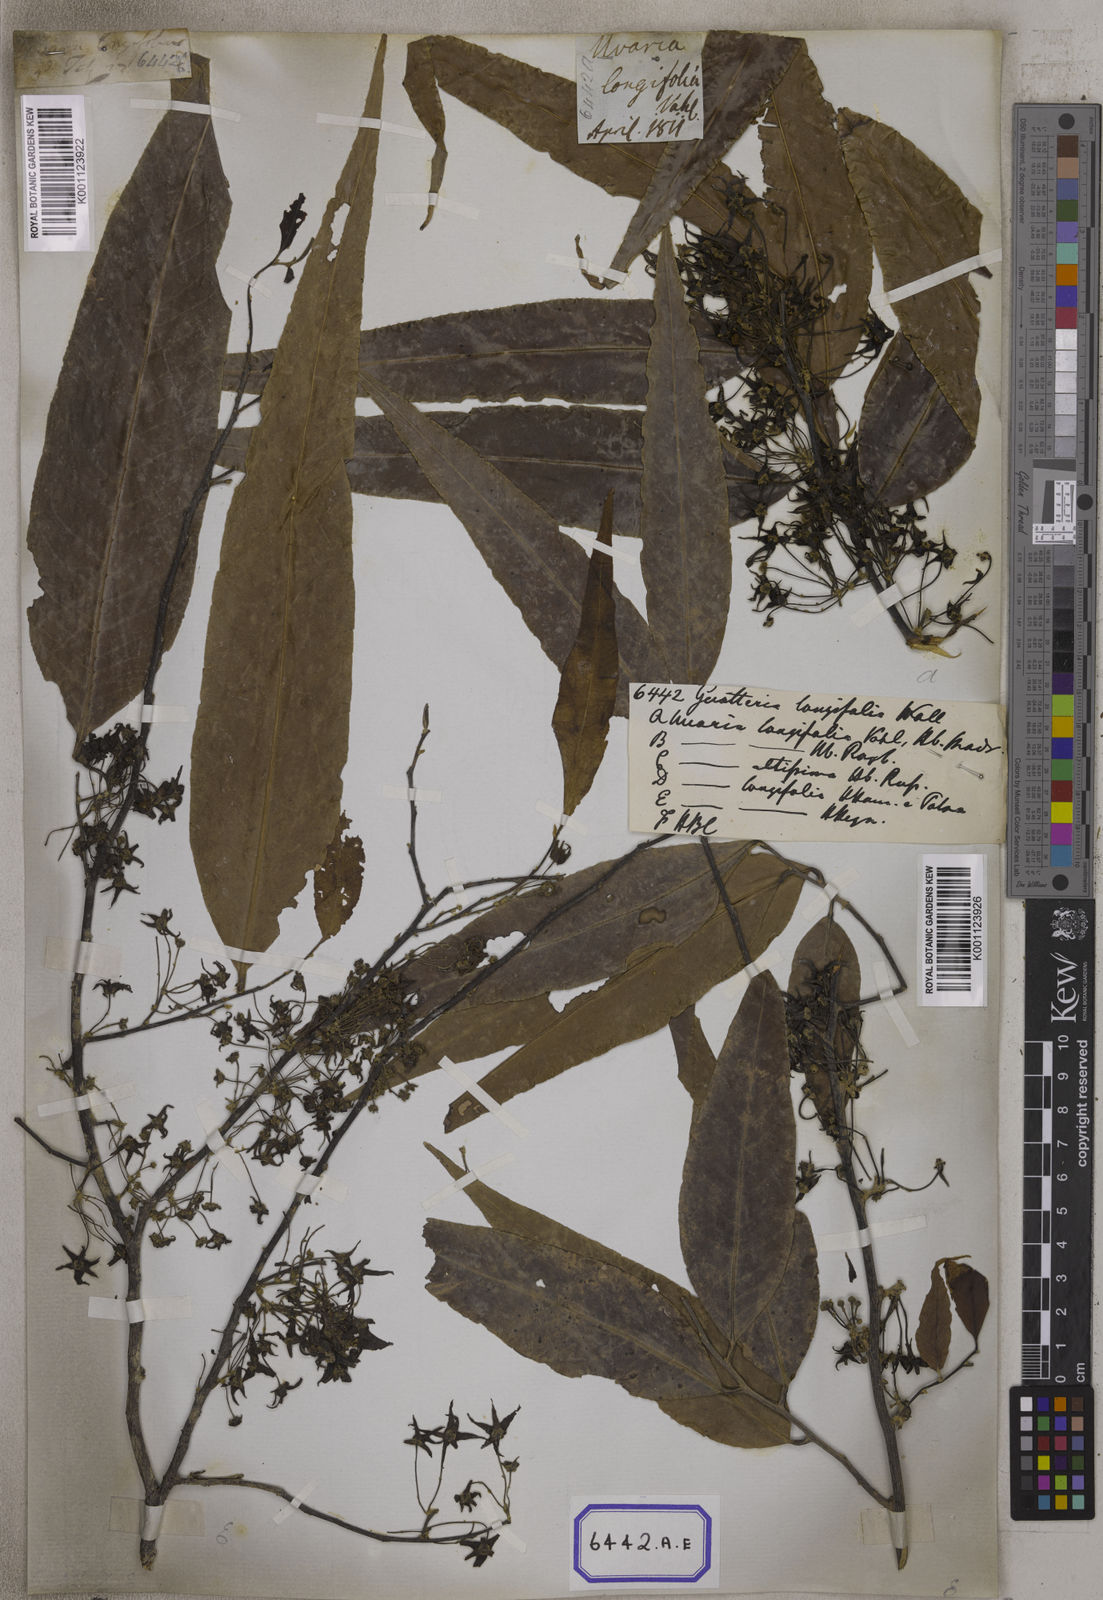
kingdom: Plantae
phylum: Tracheophyta
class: Magnoliopsida
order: Magnoliales
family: Annonaceae
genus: Polyalthia
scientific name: Polyalthia longifolia
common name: Cemetery-tree
